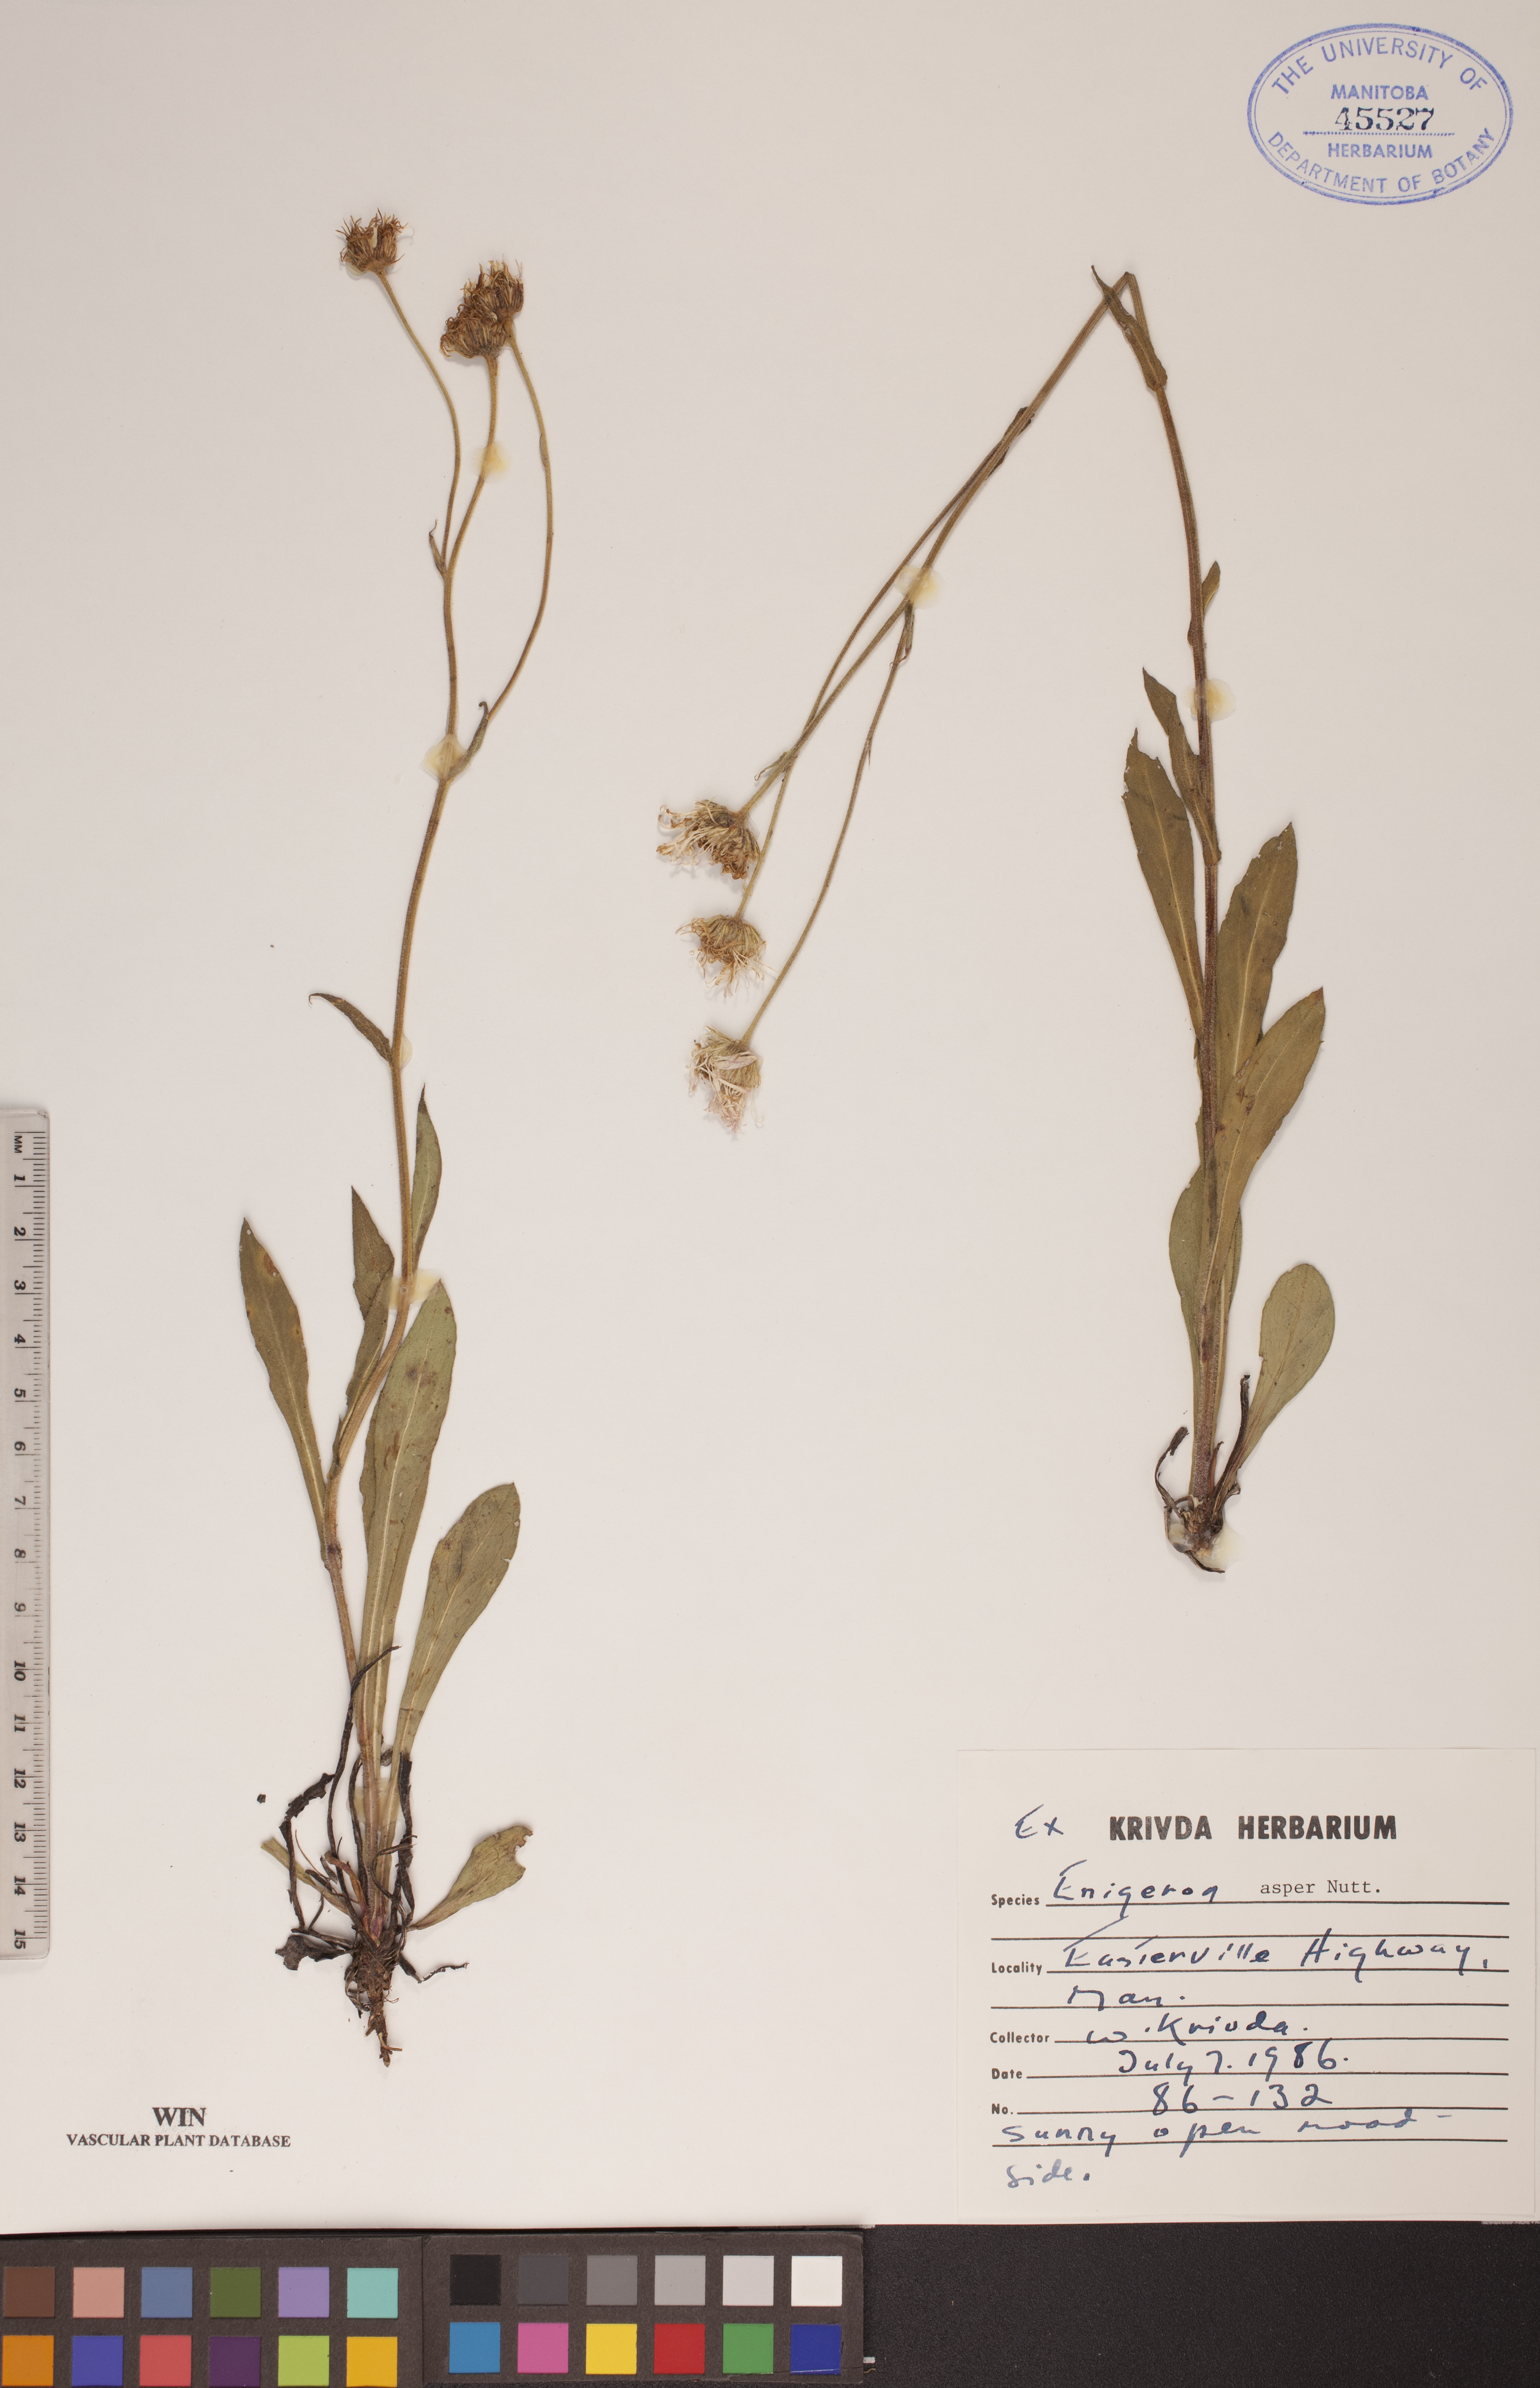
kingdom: Plantae
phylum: Tracheophyta
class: Magnoliopsida
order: Asterales
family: Asteraceae
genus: Erigeron
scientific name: Erigeron glabellus
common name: Smooth fleabane
